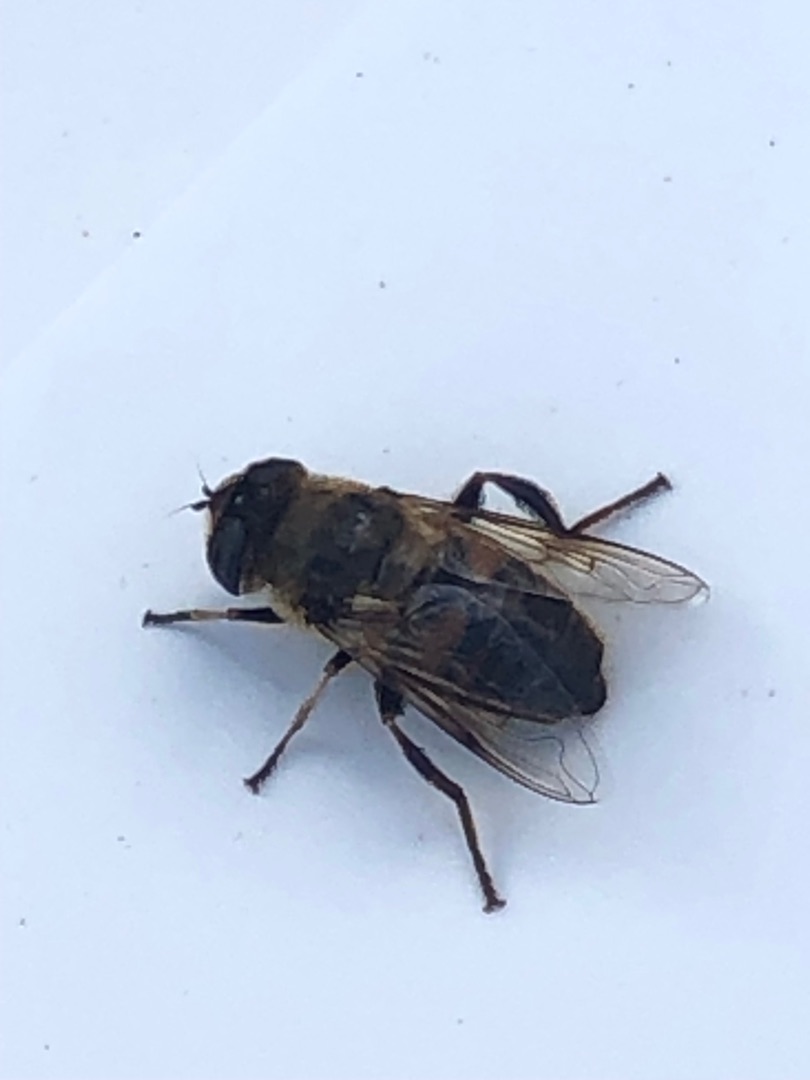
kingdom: Animalia
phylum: Arthropoda
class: Insecta
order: Diptera
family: Syrphidae
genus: Eristalis
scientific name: Eristalis tenax
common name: Droneflue
